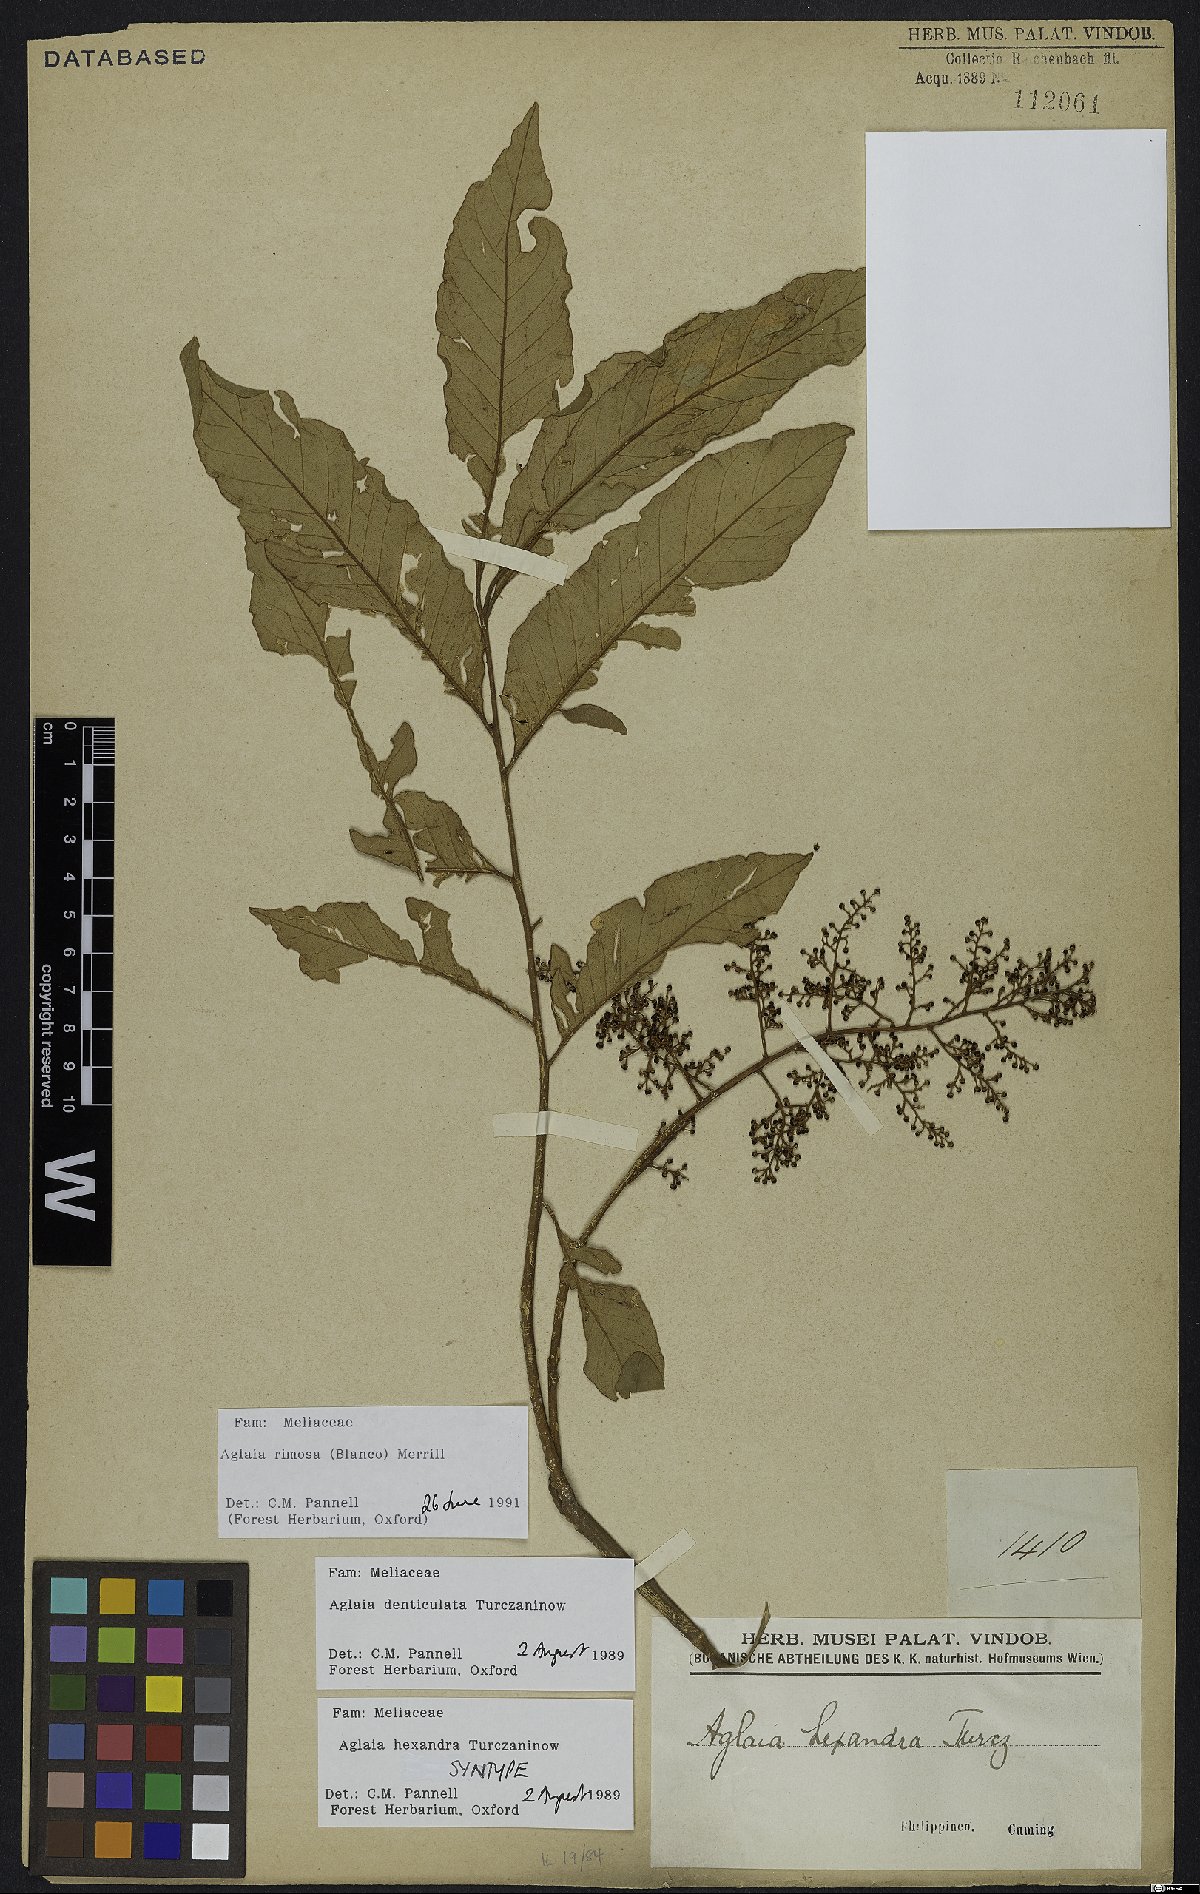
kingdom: Plantae
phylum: Tracheophyta
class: Magnoliopsida
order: Sapindales
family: Meliaceae
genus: Aglaia
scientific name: Aglaia rimosa
